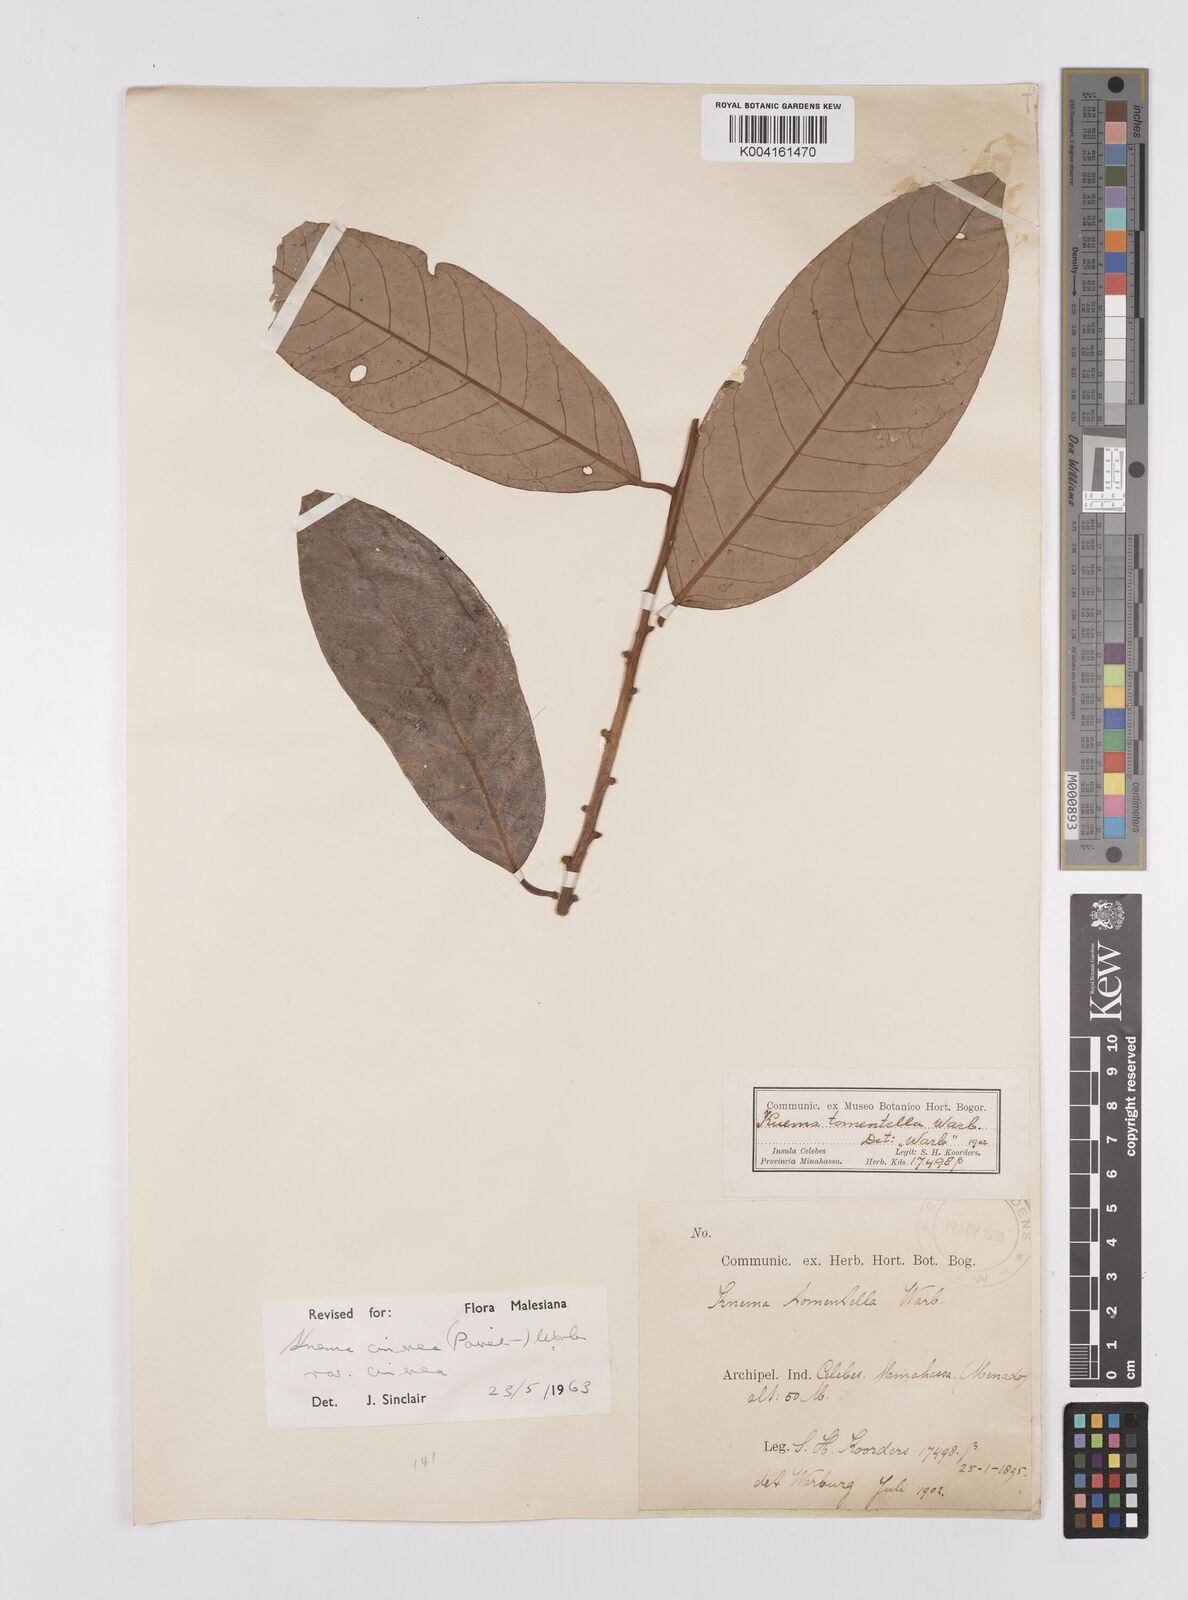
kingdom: Plantae
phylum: Tracheophyta
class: Magnoliopsida
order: Magnoliales
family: Myristicaceae
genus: Knema
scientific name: Knema cinerea
